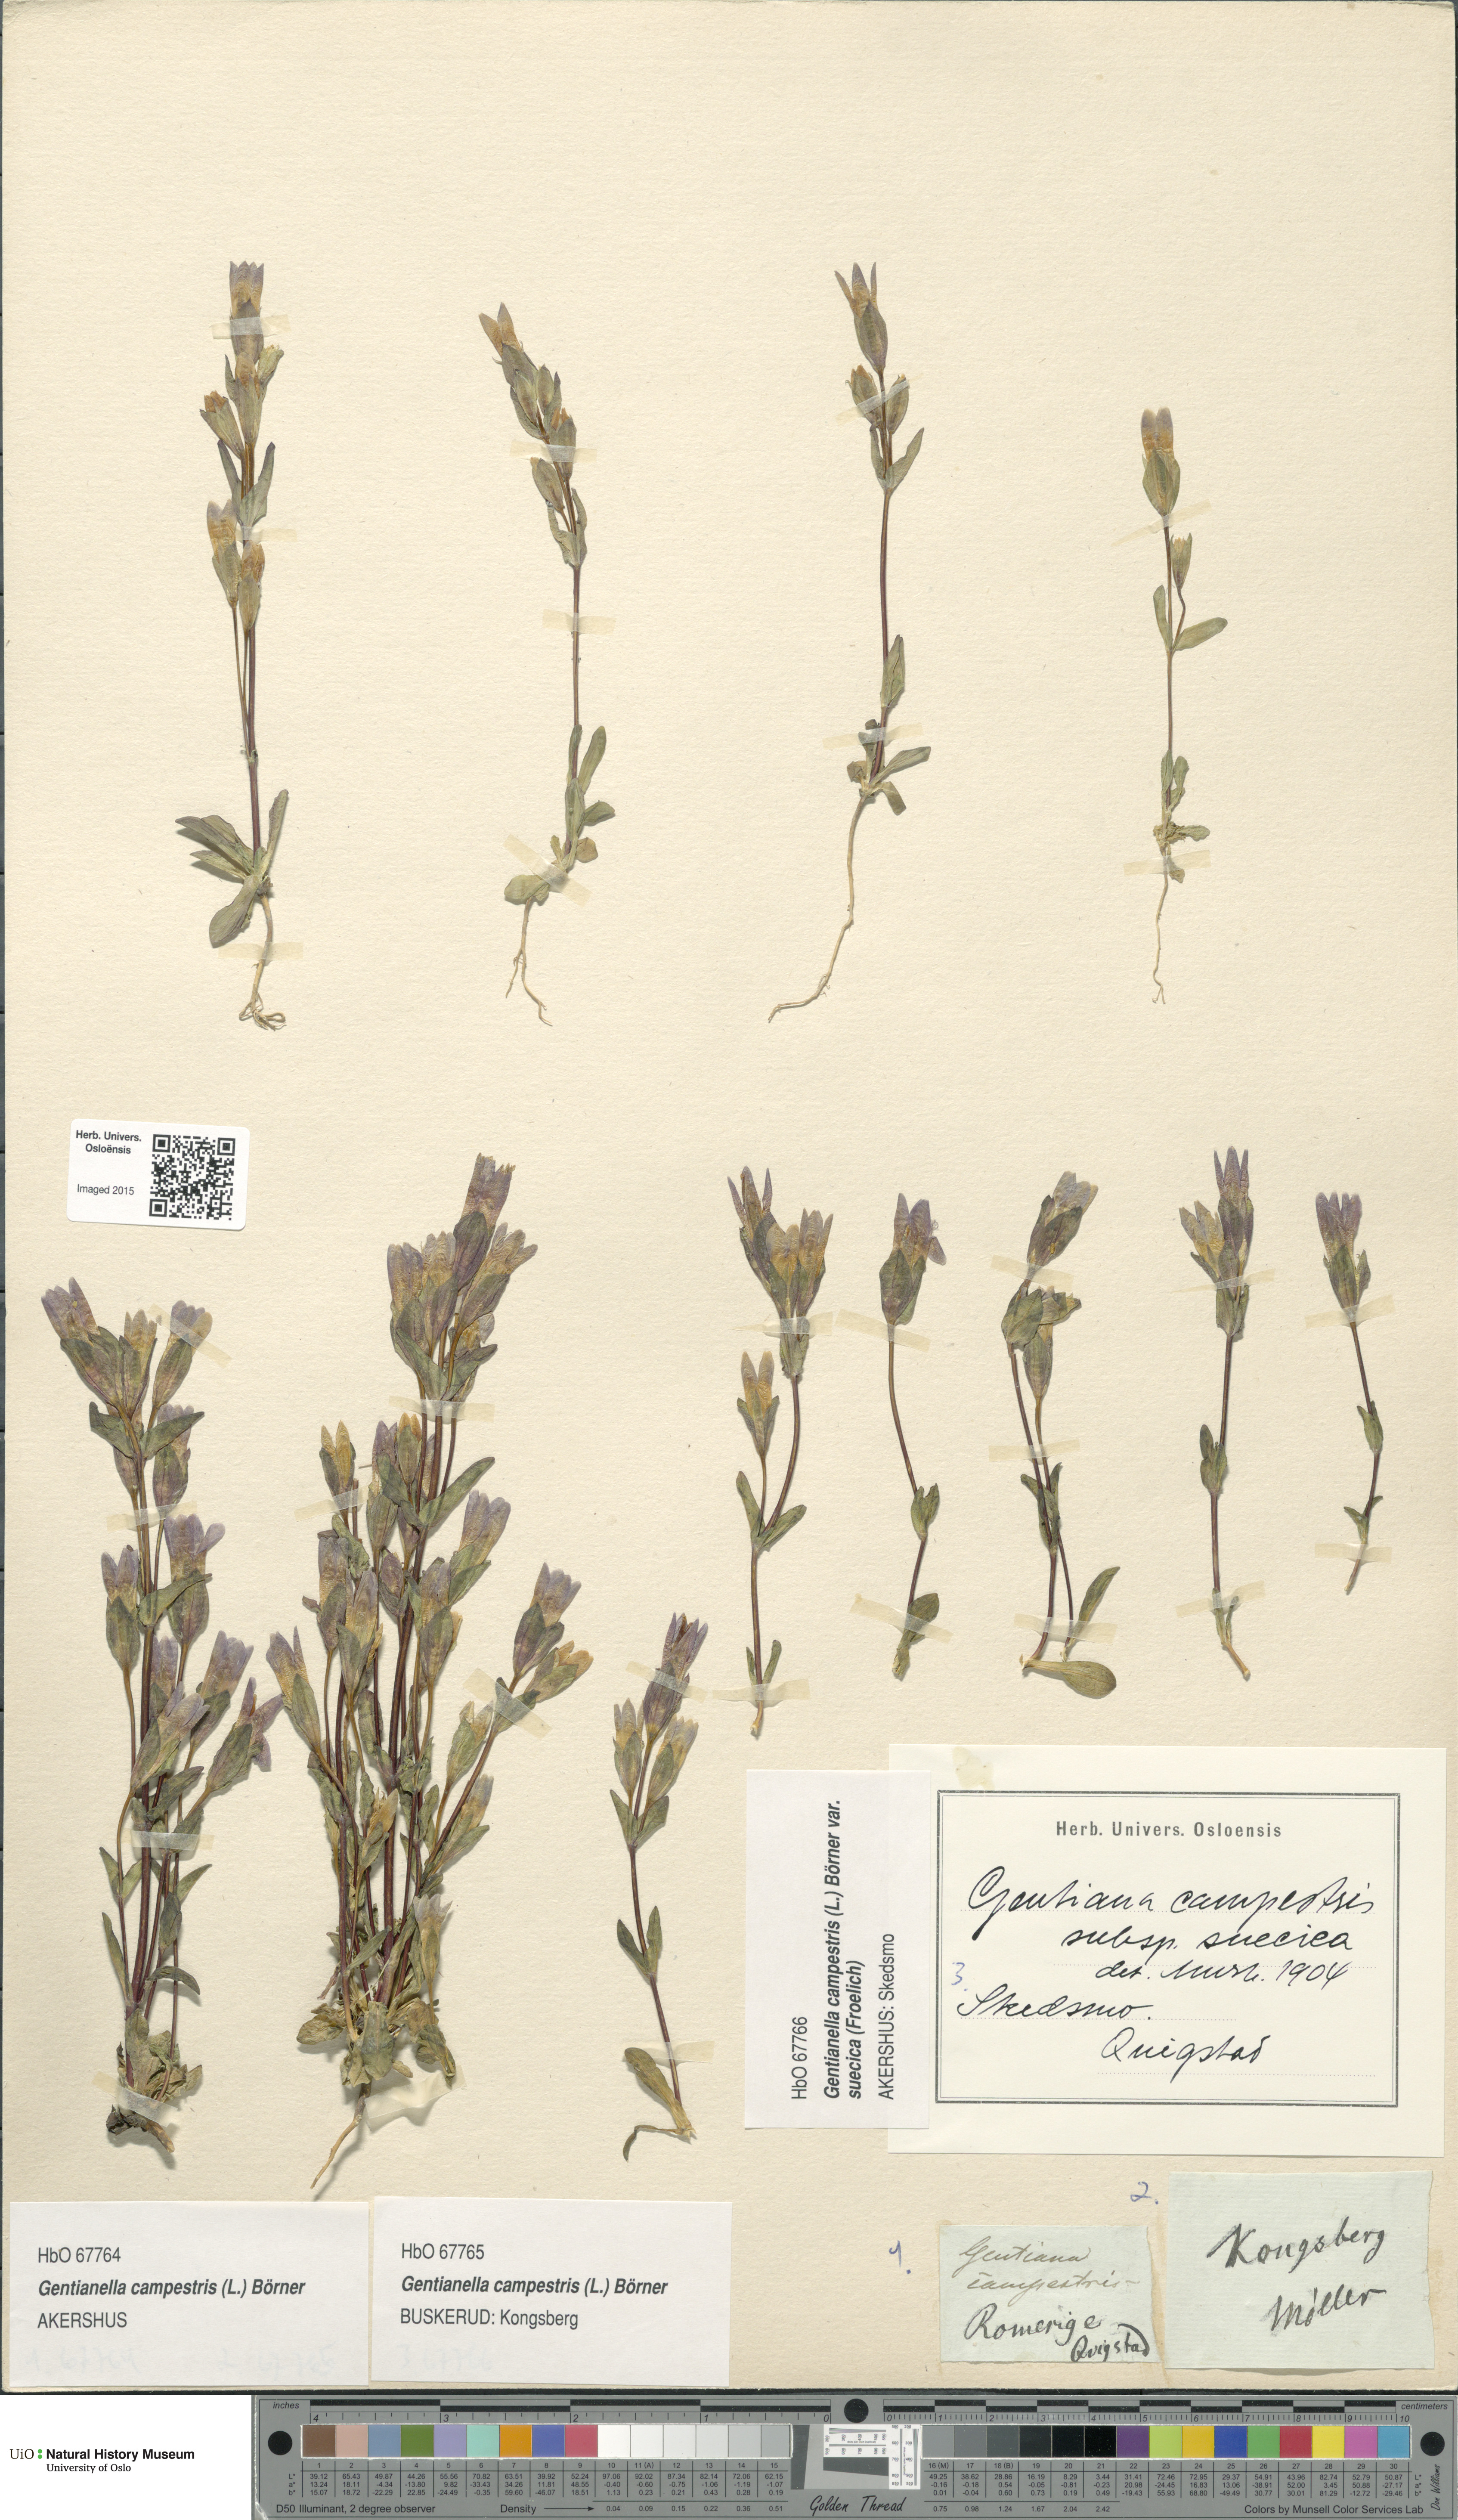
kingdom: Plantae
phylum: Tracheophyta
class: Magnoliopsida
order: Gentianales
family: Gentianaceae
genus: Gentianella
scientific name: Gentianella campestris
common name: Field gentian
